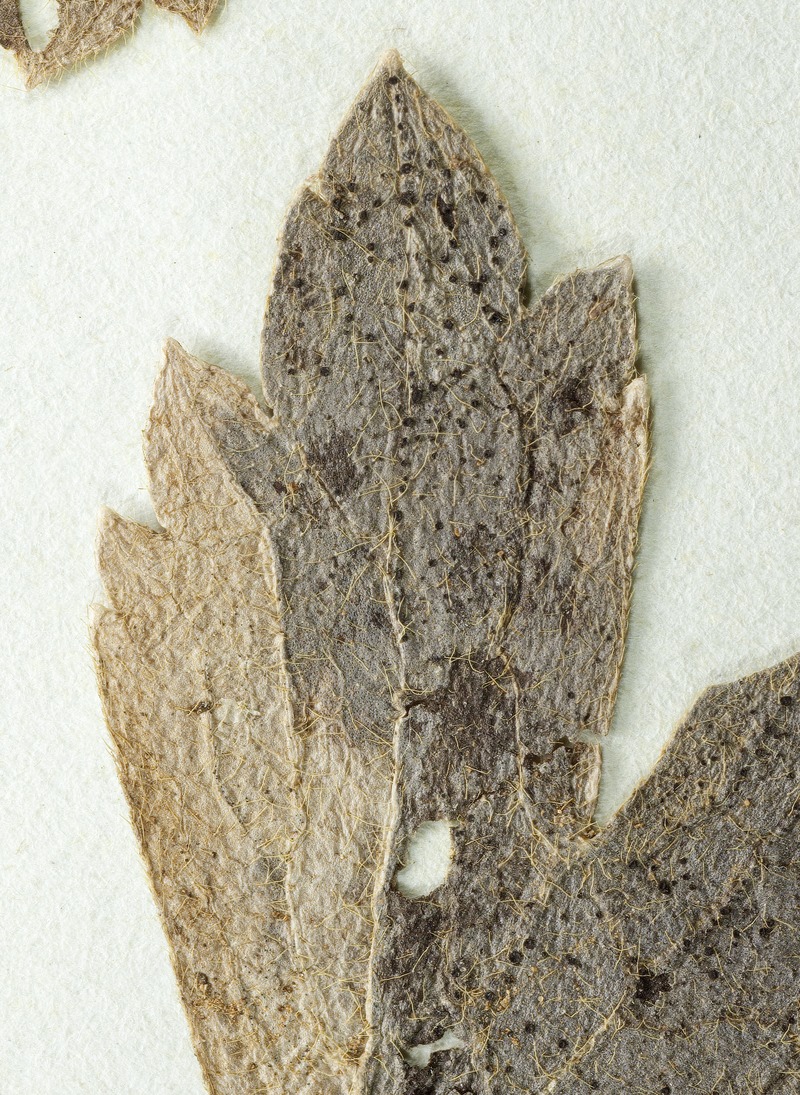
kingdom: Fungi
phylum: Ascomycota
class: Leotiomycetes
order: Helotiales
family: Drepanopezizaceae
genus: Fabraea
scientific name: Fabraea congener
